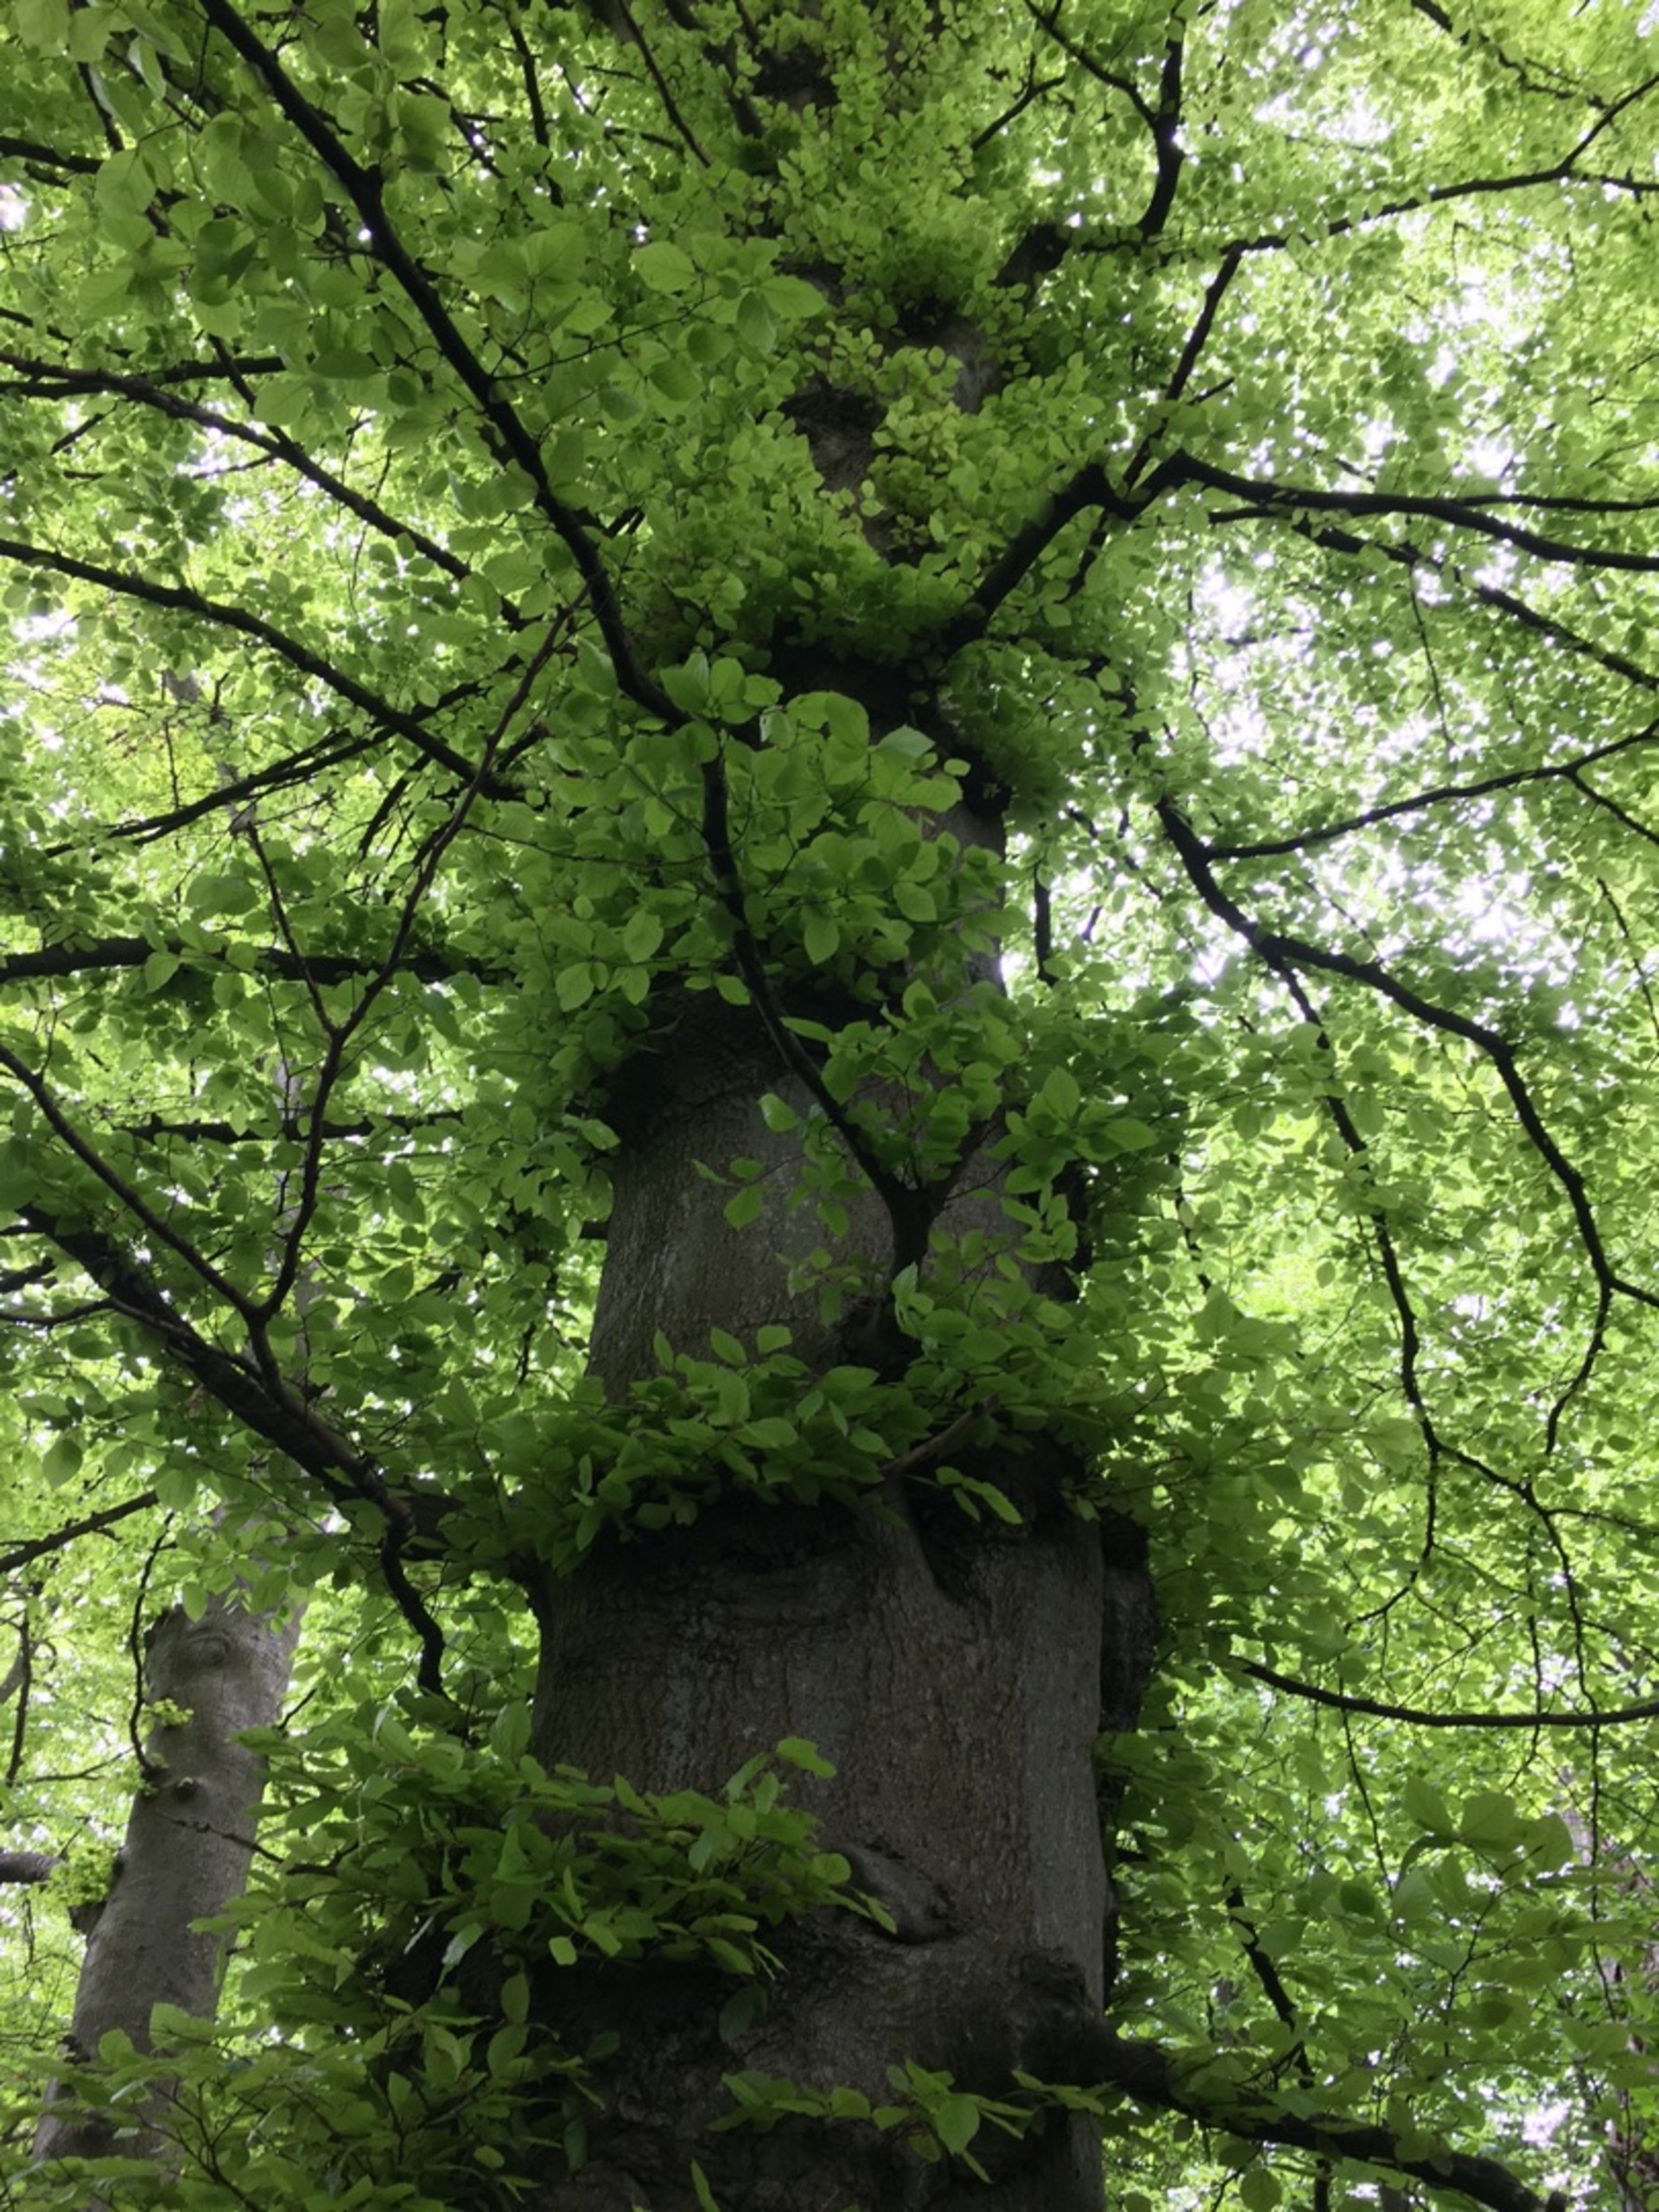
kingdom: Plantae
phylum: Tracheophyta
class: Magnoliopsida
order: Fagales
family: Fagaceae
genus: Fagus
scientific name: Fagus sylvatica
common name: Bøg
